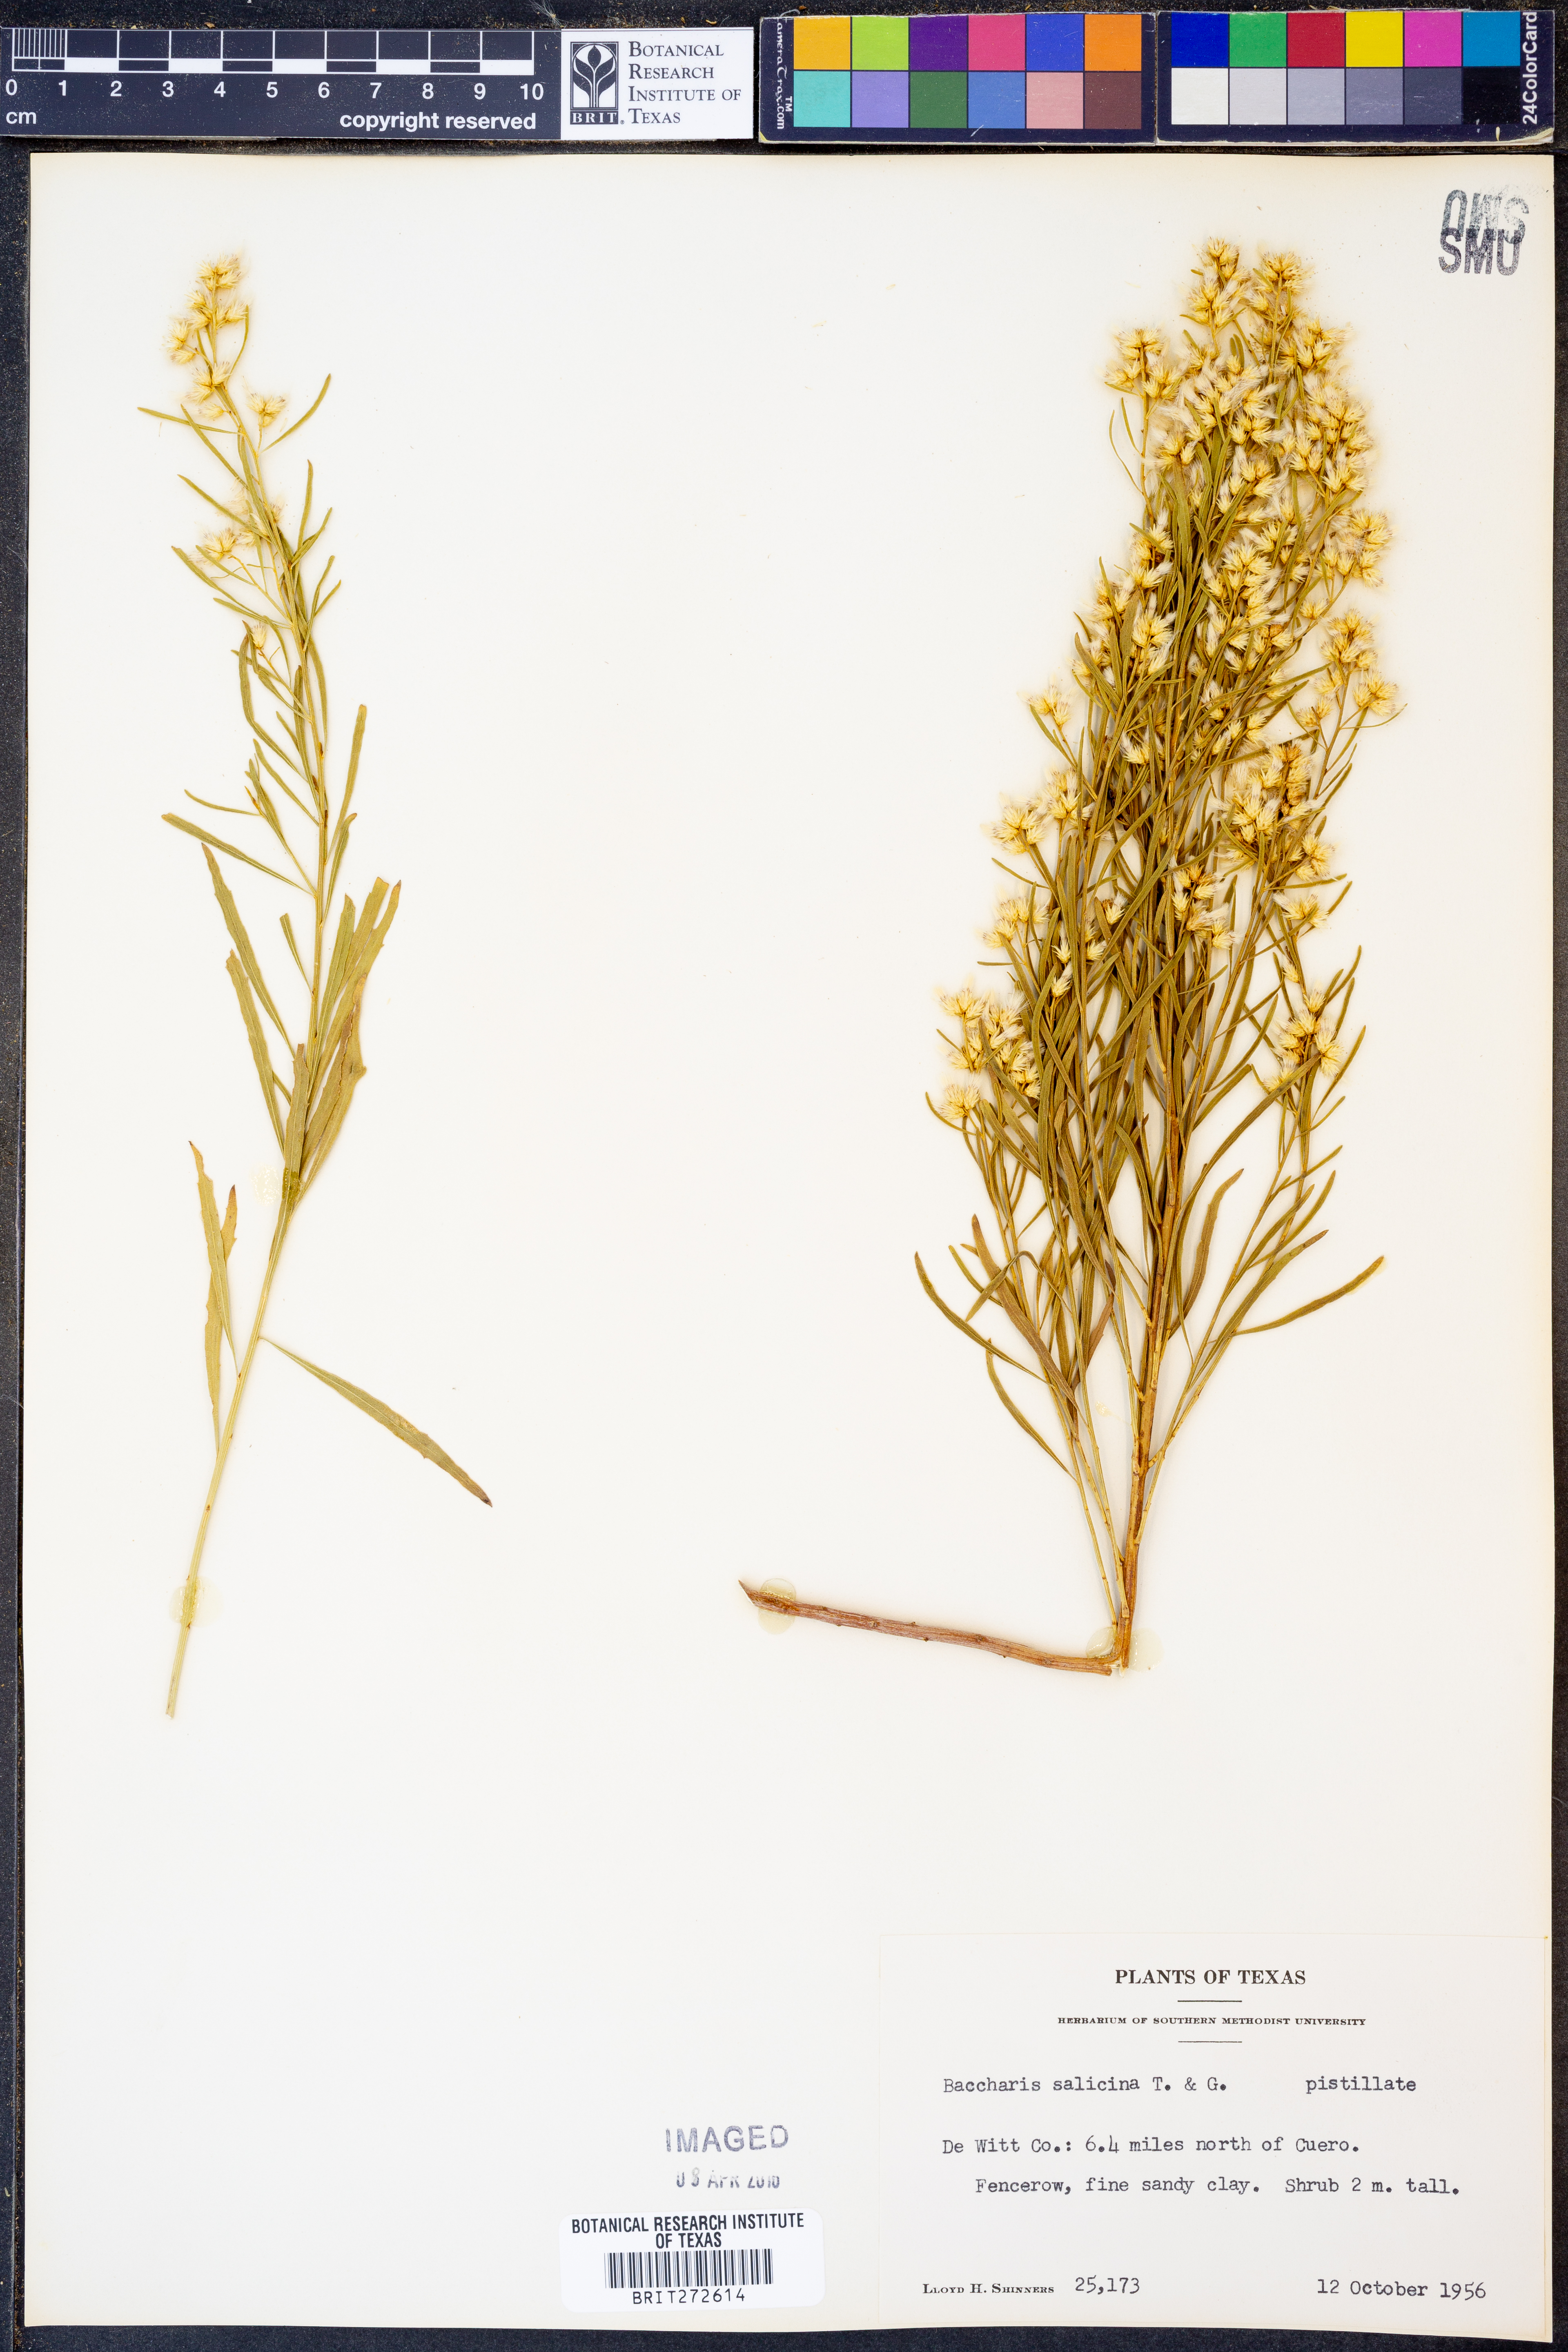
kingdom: Plantae
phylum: Tracheophyta
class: Magnoliopsida
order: Asterales
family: Asteraceae
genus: Baccharis
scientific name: Baccharis salicina
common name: Willow baccharis
